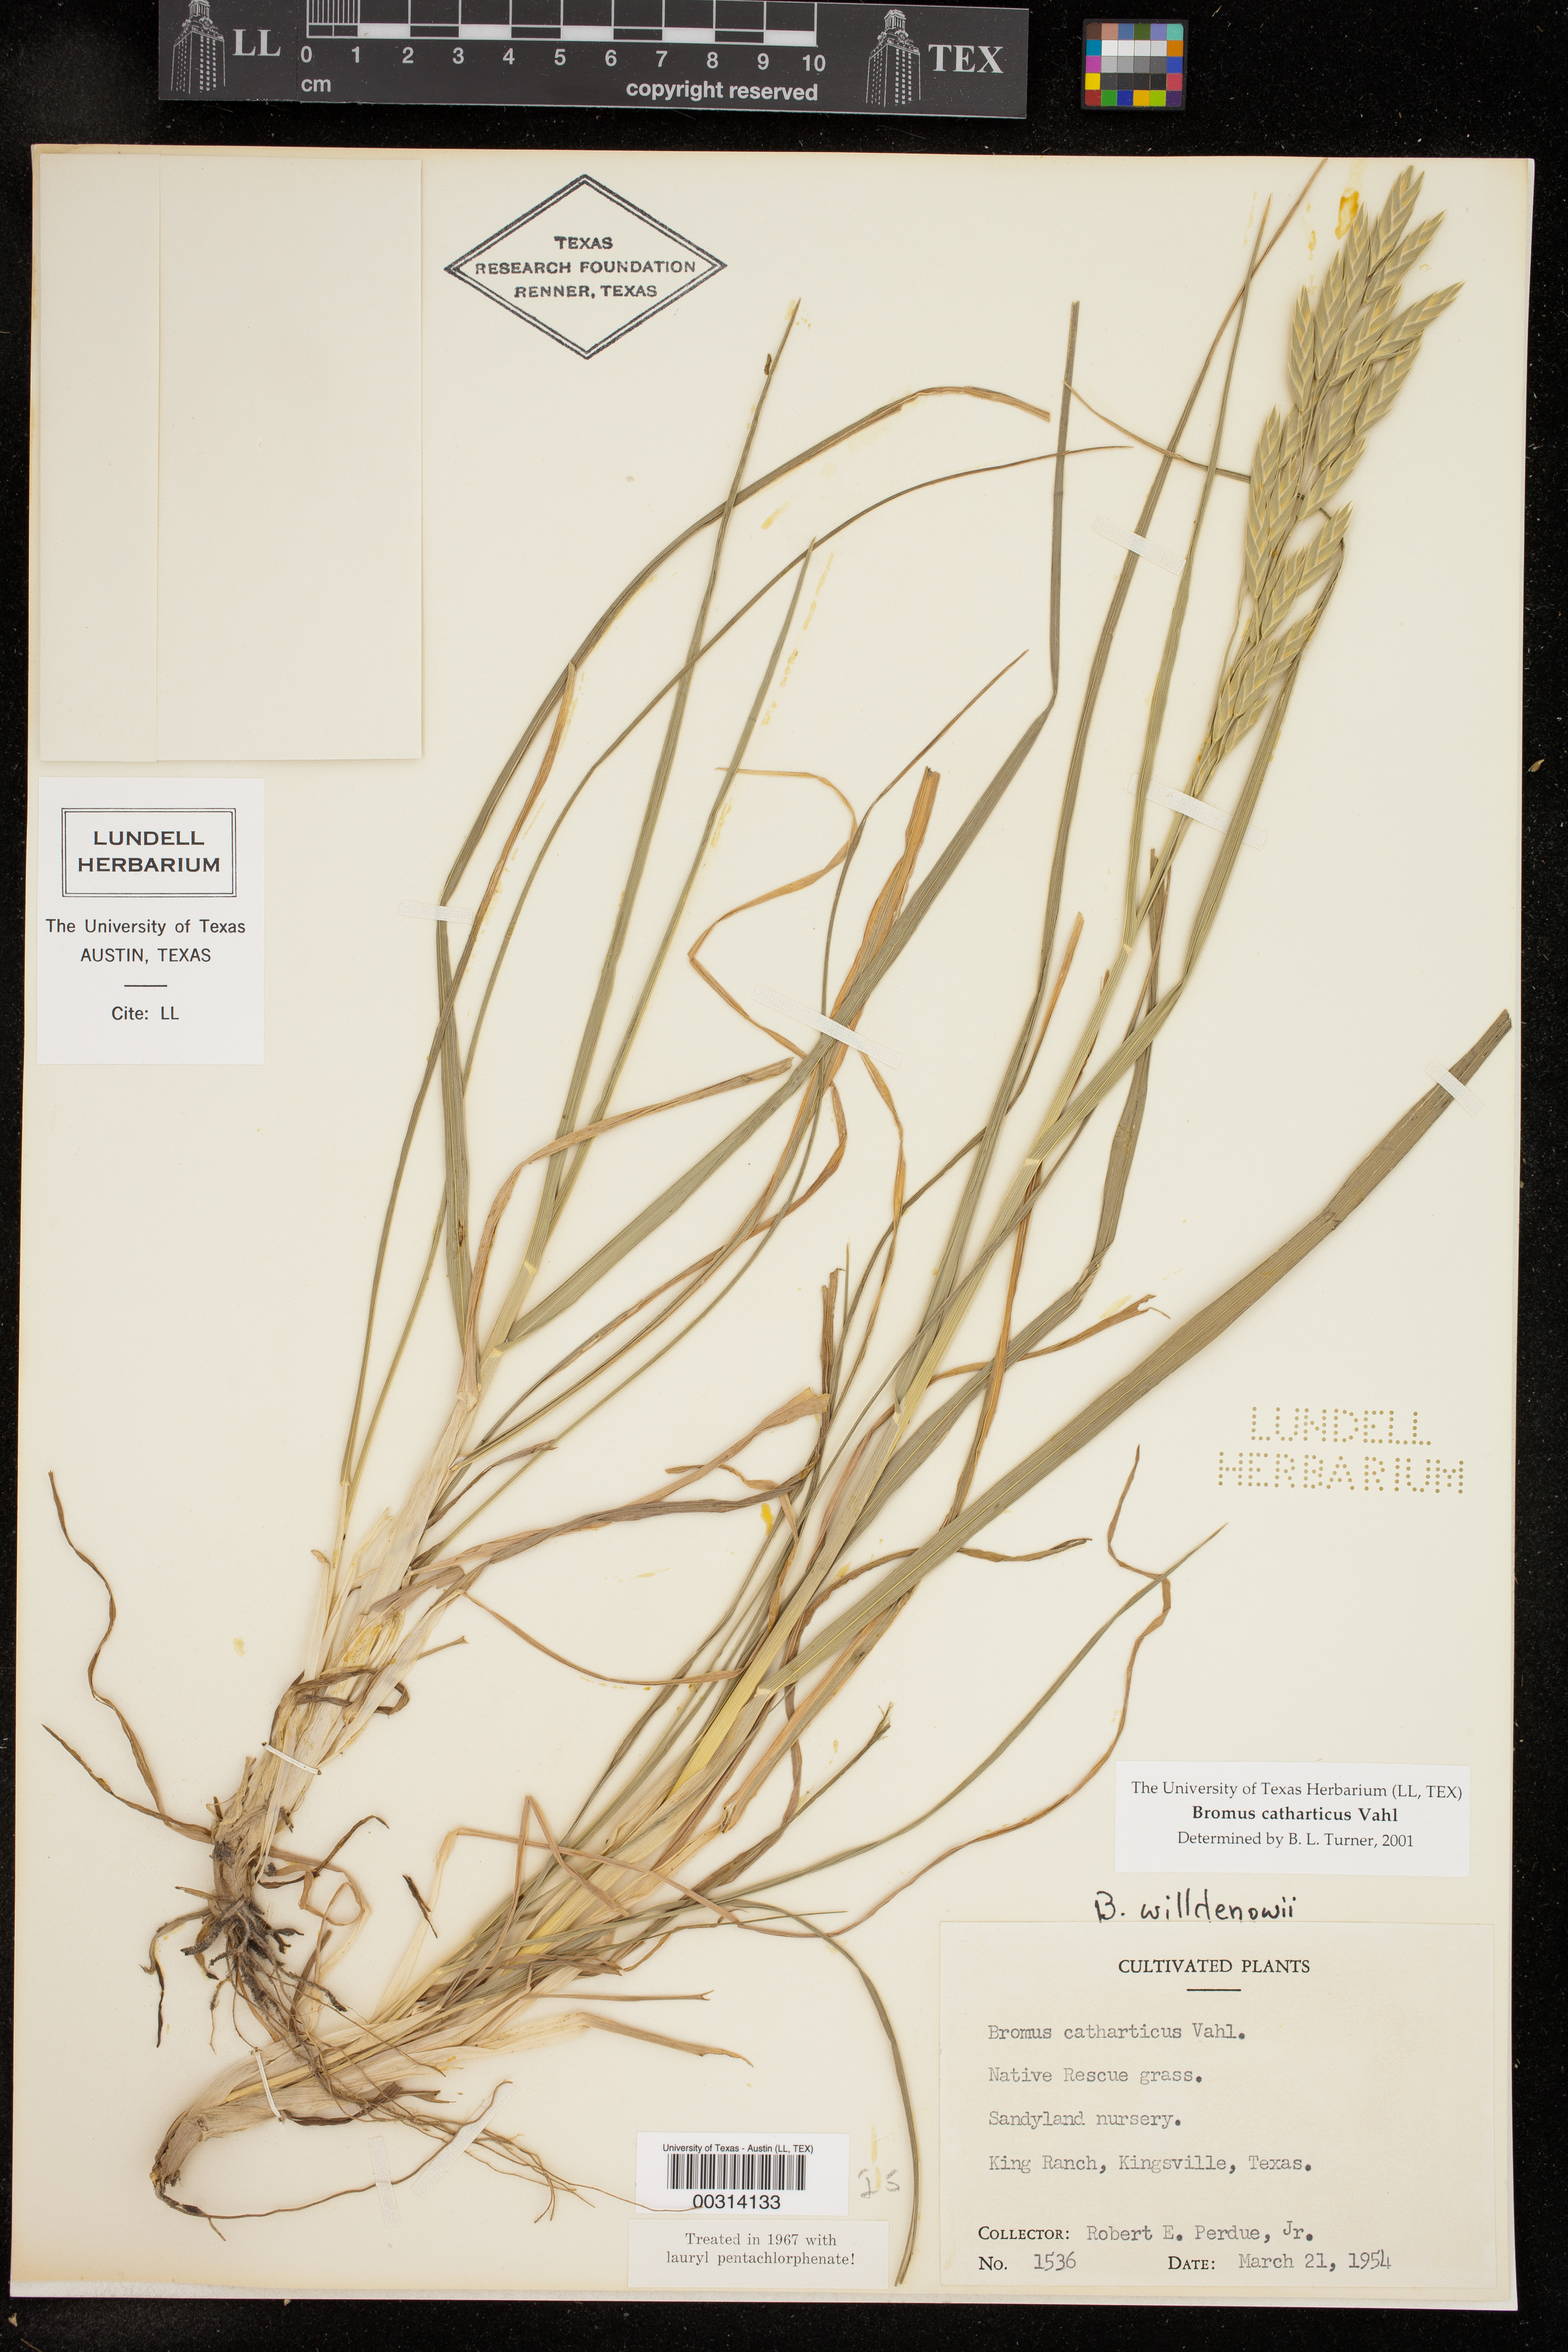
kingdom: Plantae
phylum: Tracheophyta
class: Liliopsida
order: Poales
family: Poaceae
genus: Bromus
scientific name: Bromus catharticus
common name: Rescuegrass
